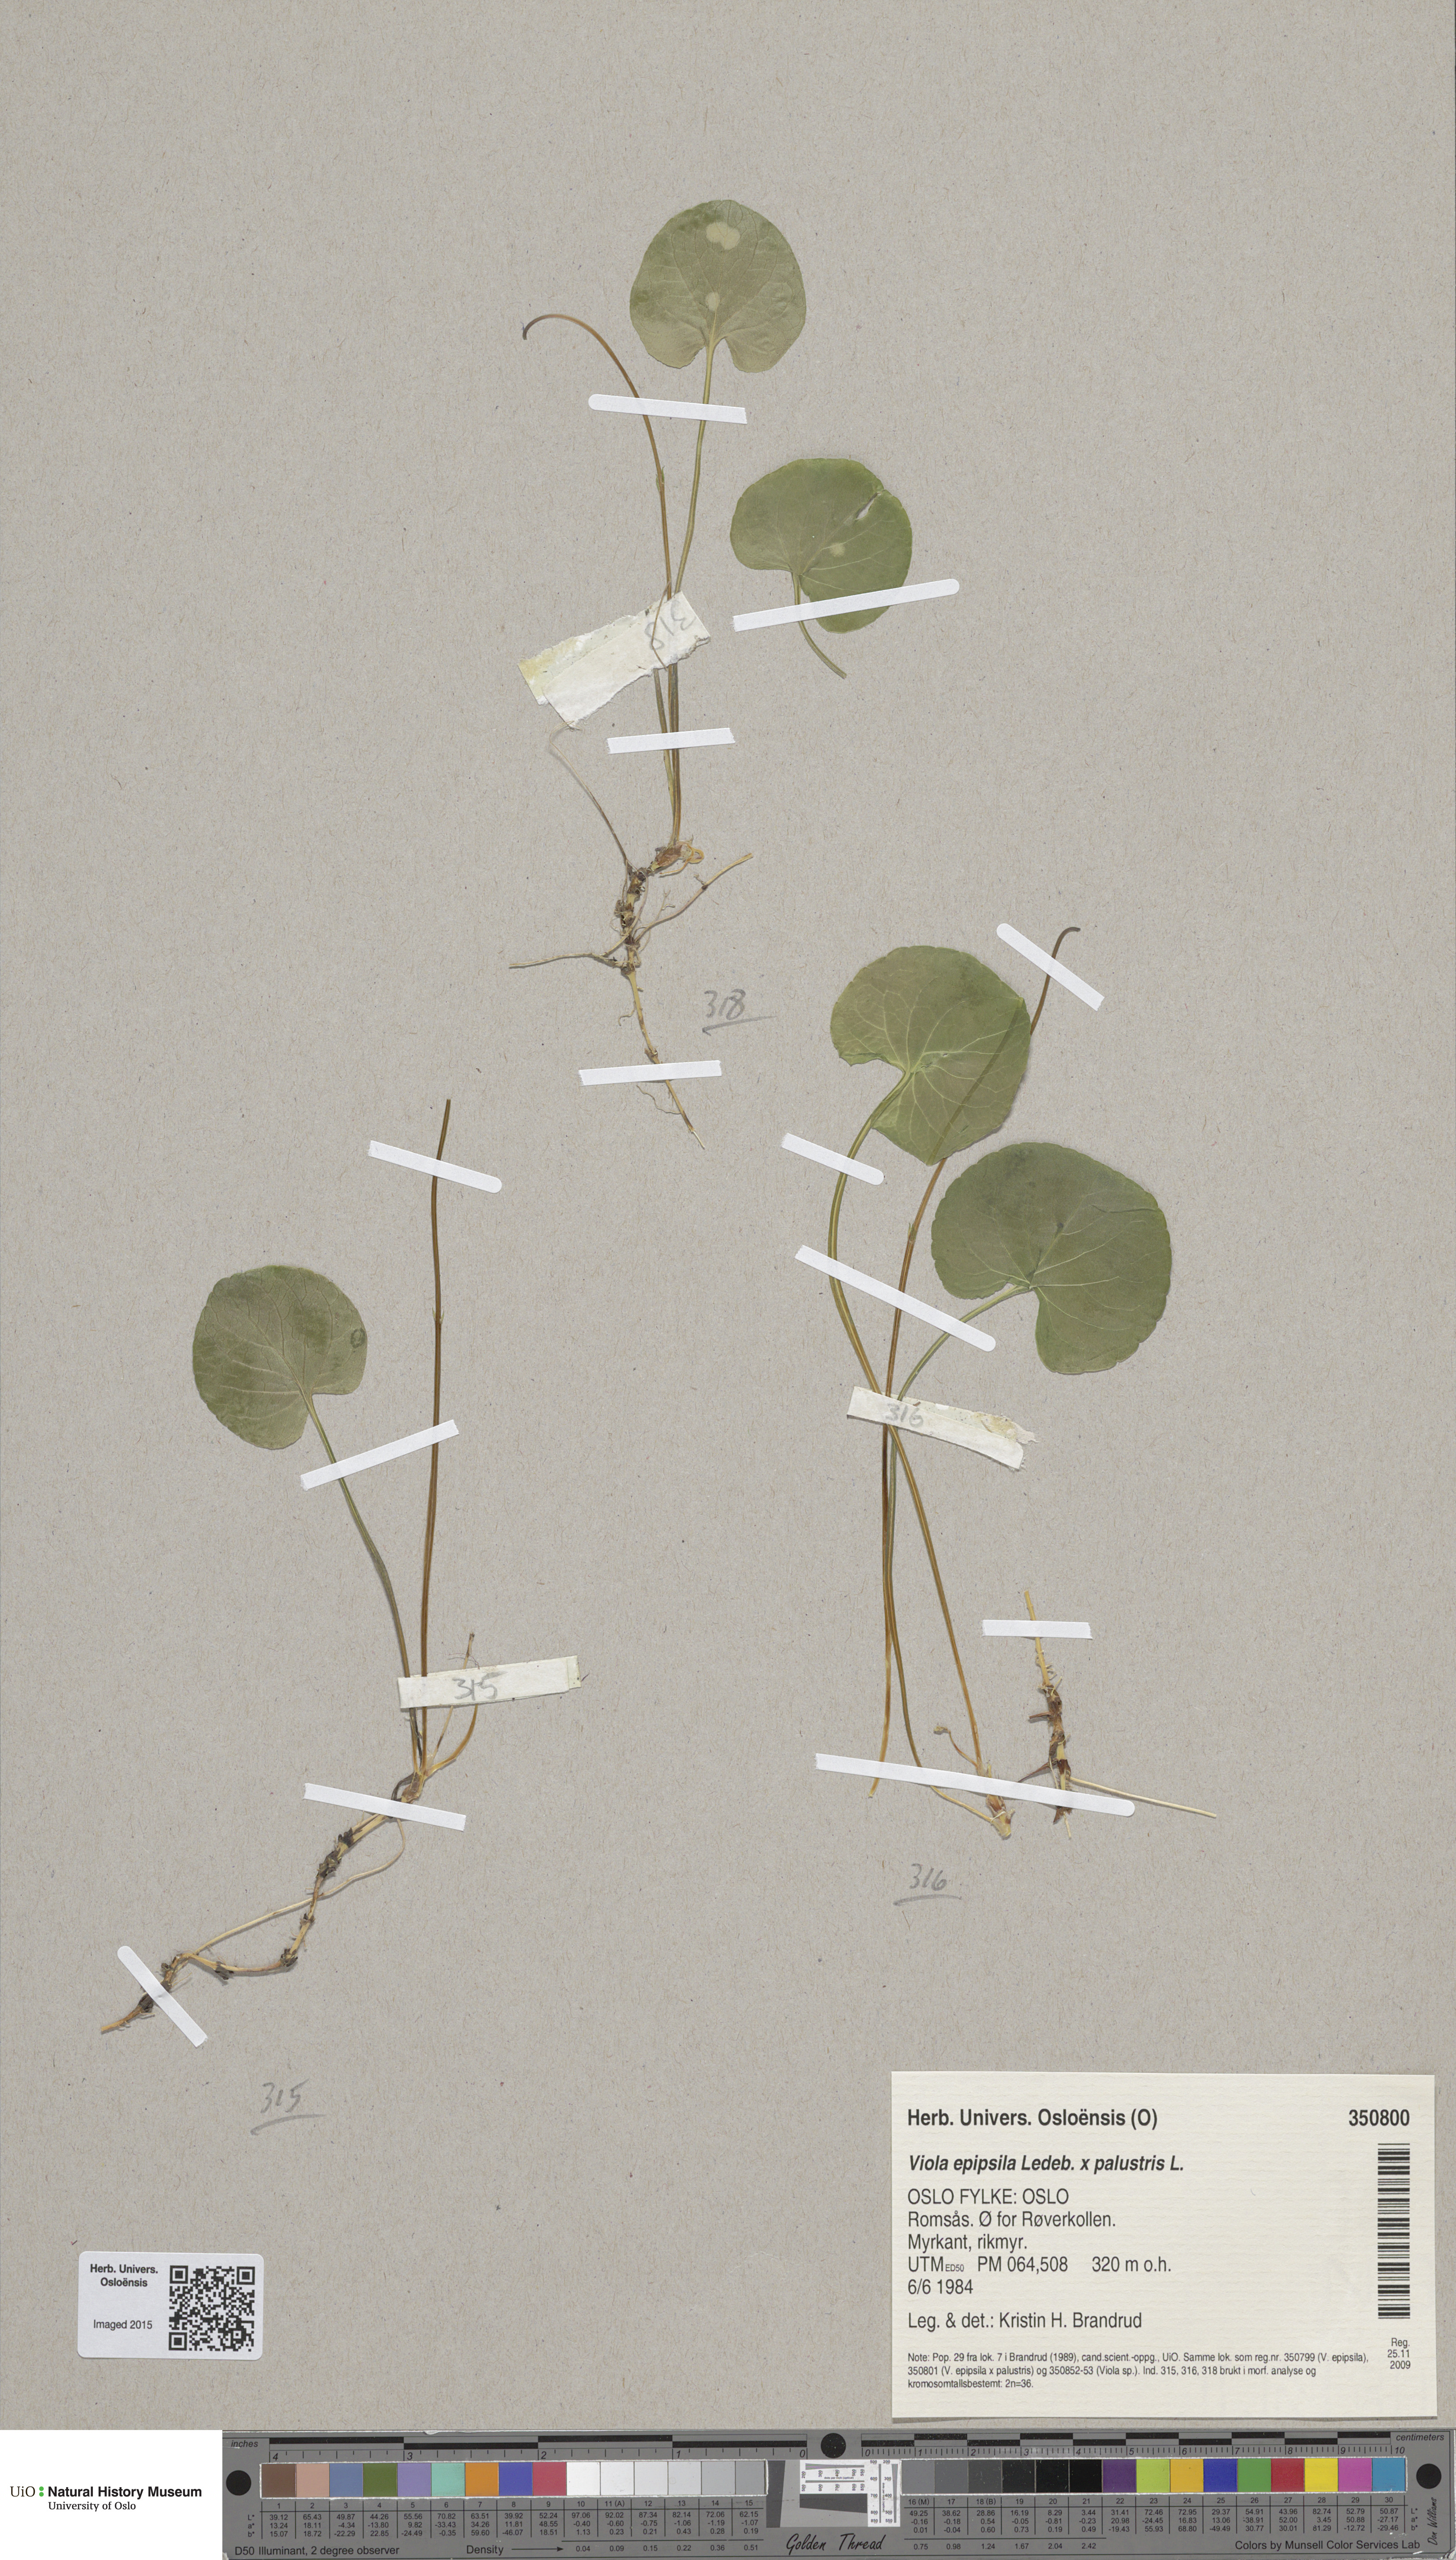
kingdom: Plantae
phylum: Tracheophyta
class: Magnoliopsida
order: Malpighiales
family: Violaceae
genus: Viola
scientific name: Viola
